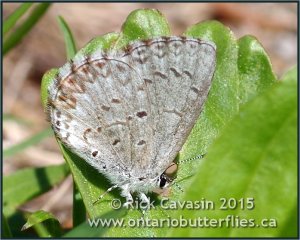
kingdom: Animalia
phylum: Arthropoda
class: Insecta
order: Lepidoptera
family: Lycaenidae
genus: Celastrina
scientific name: Celastrina lucia
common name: Northern Spring Azure
